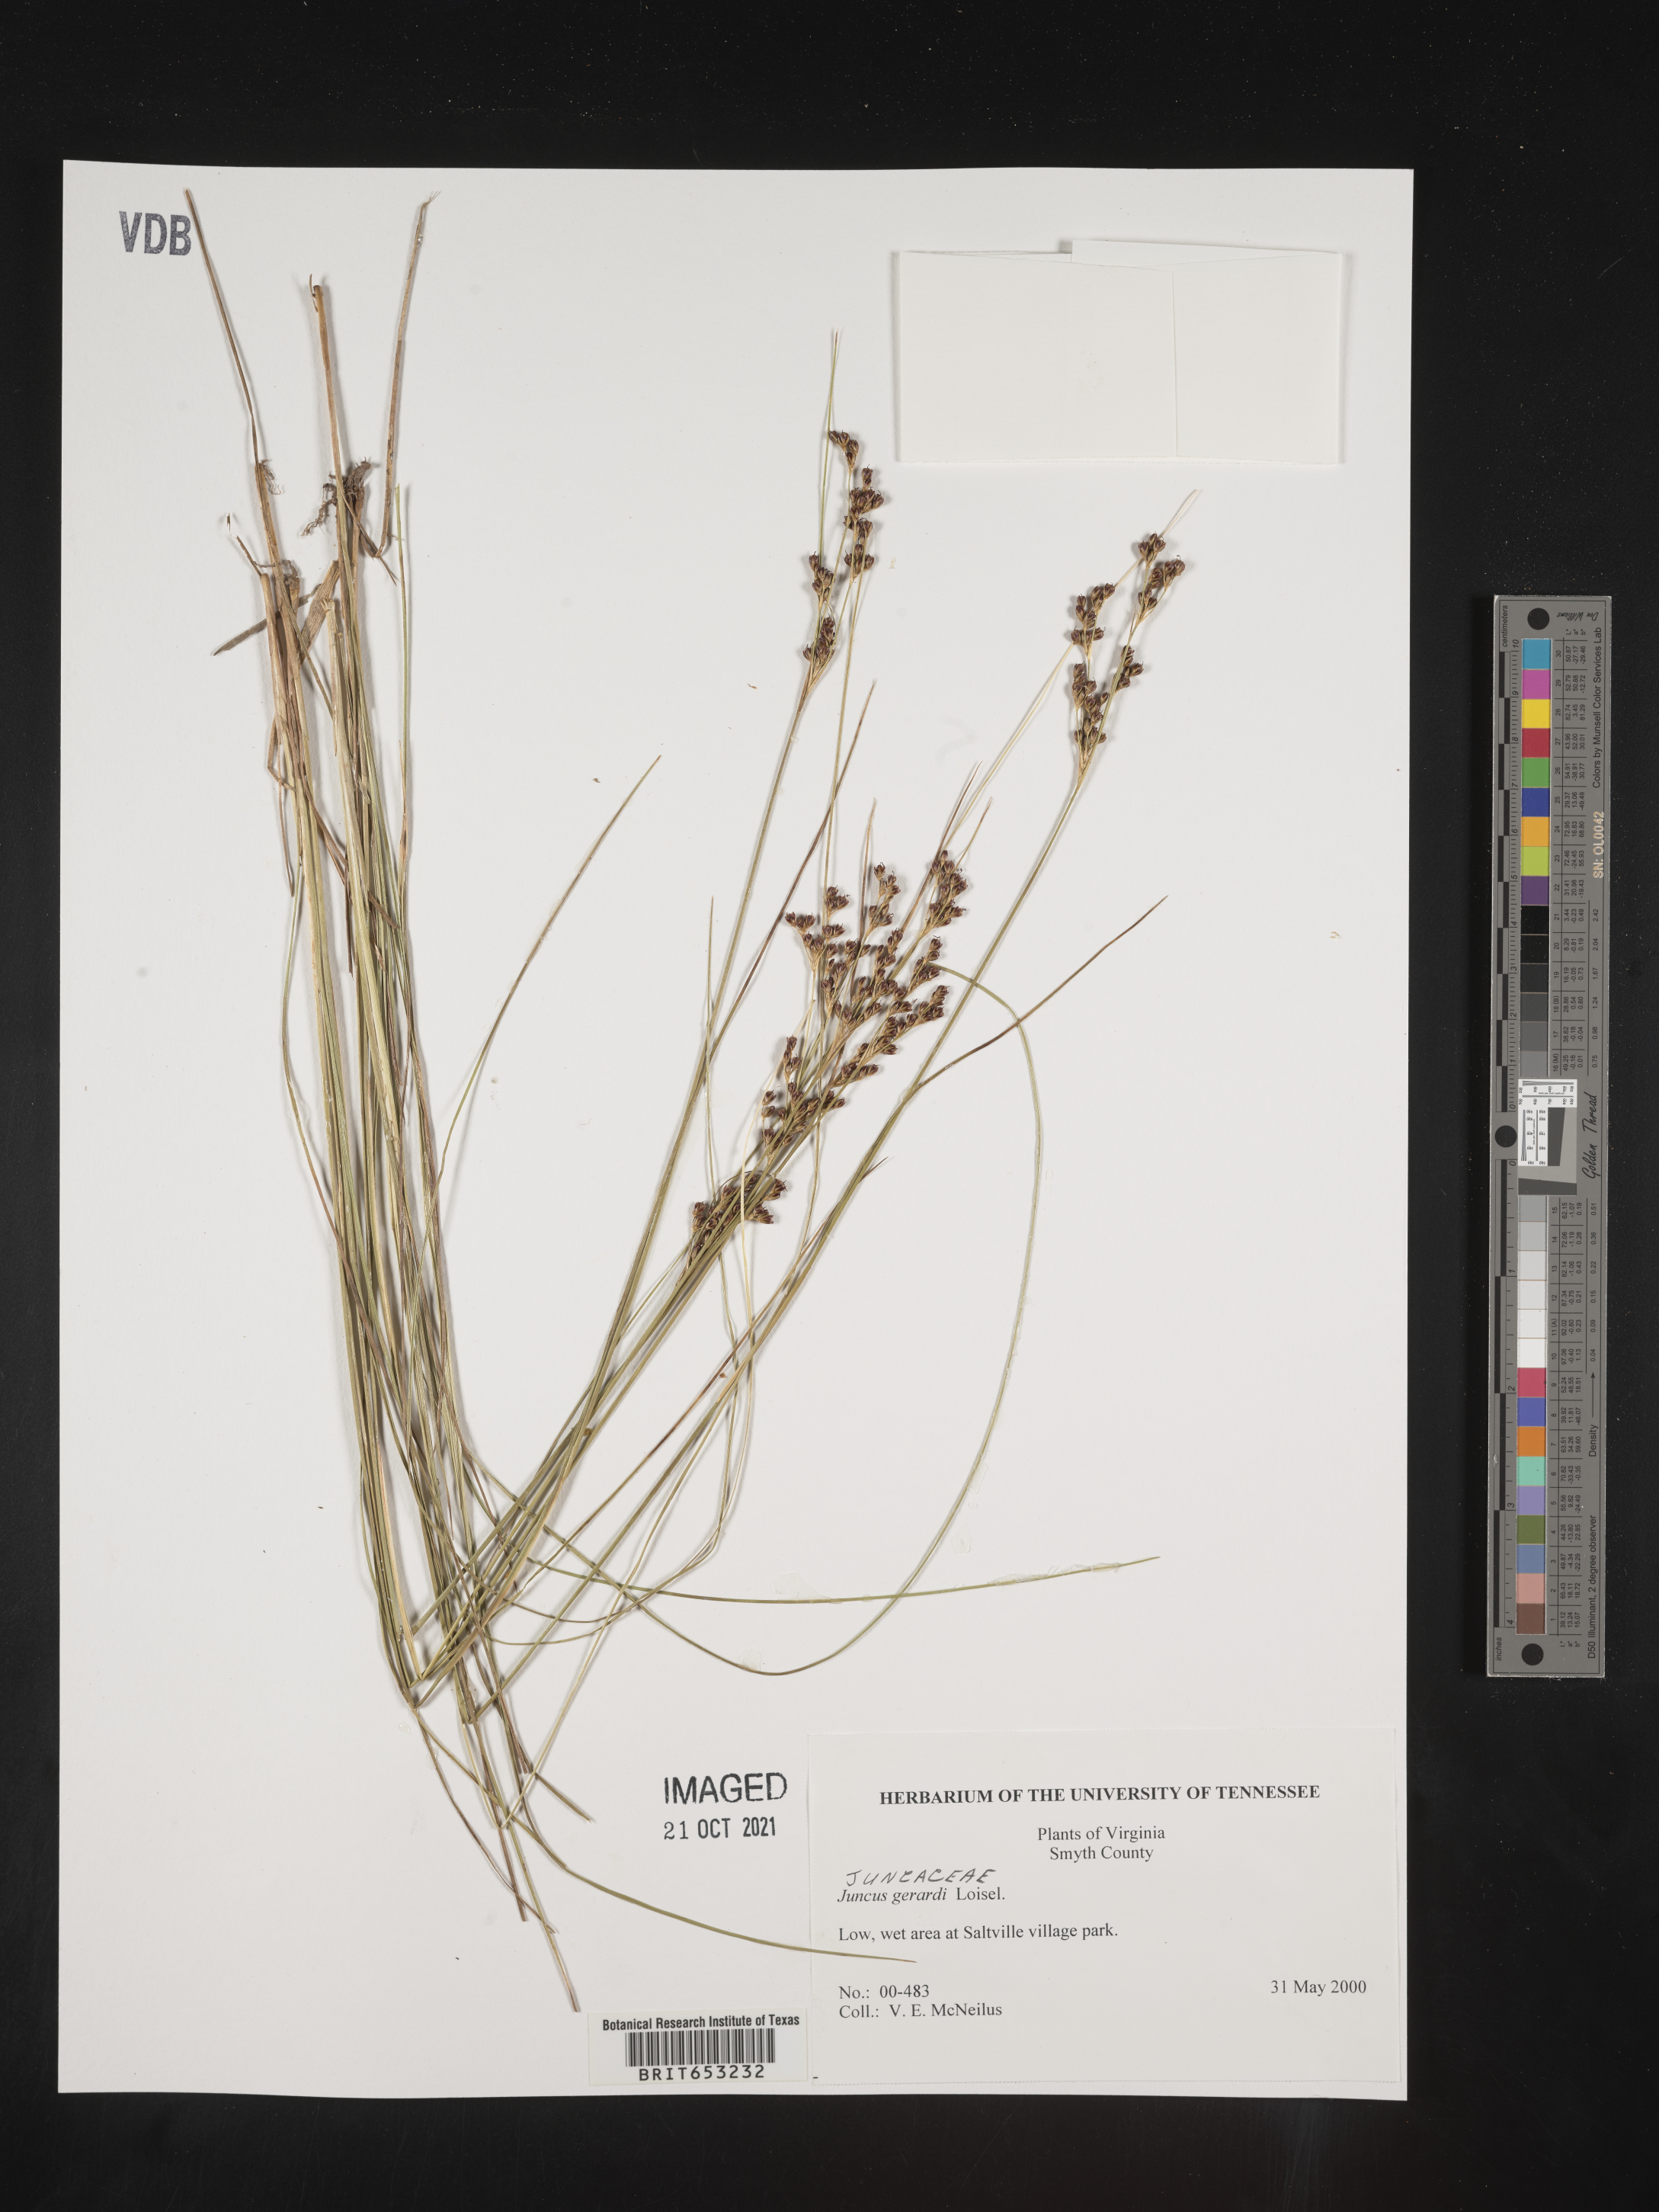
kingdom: Plantae
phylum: Tracheophyta
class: Liliopsida
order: Poales
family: Juncaceae
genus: Juncus
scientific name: Juncus gerardi
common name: Saltmarsh rush
